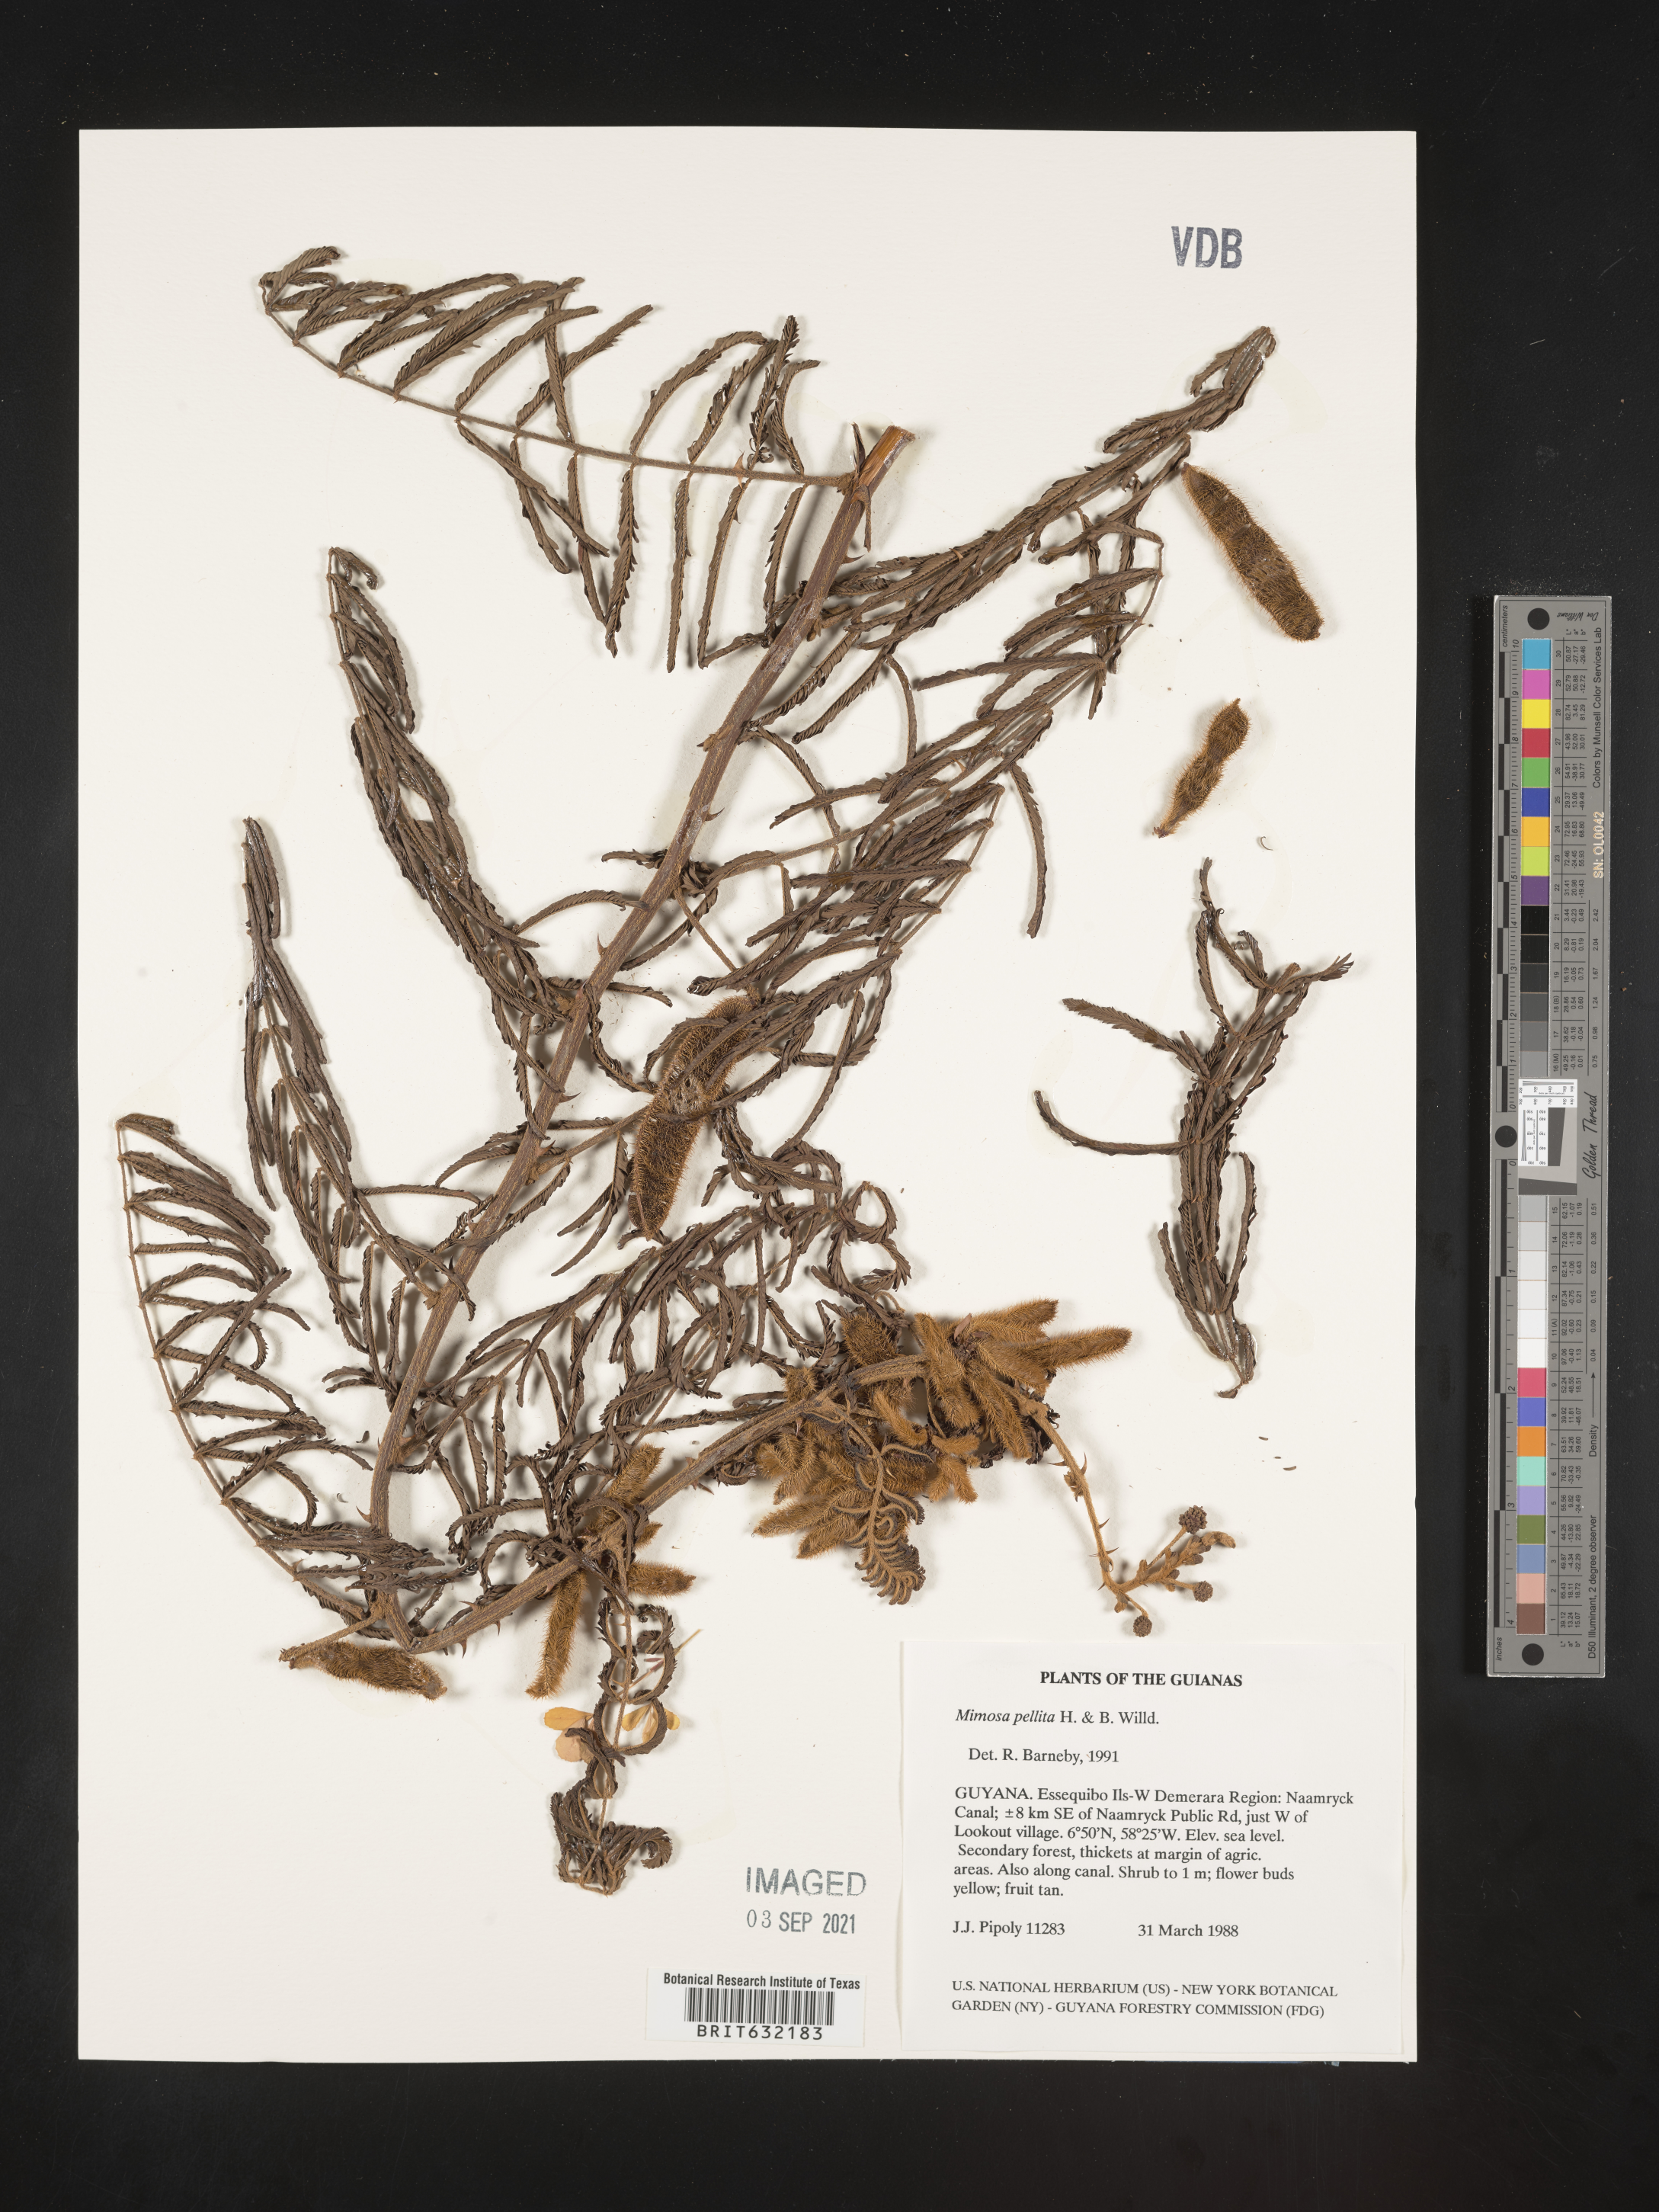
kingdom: Plantae
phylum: Tracheophyta
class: Magnoliopsida
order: Fabales
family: Fabaceae
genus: Mimosa
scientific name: Mimosa
